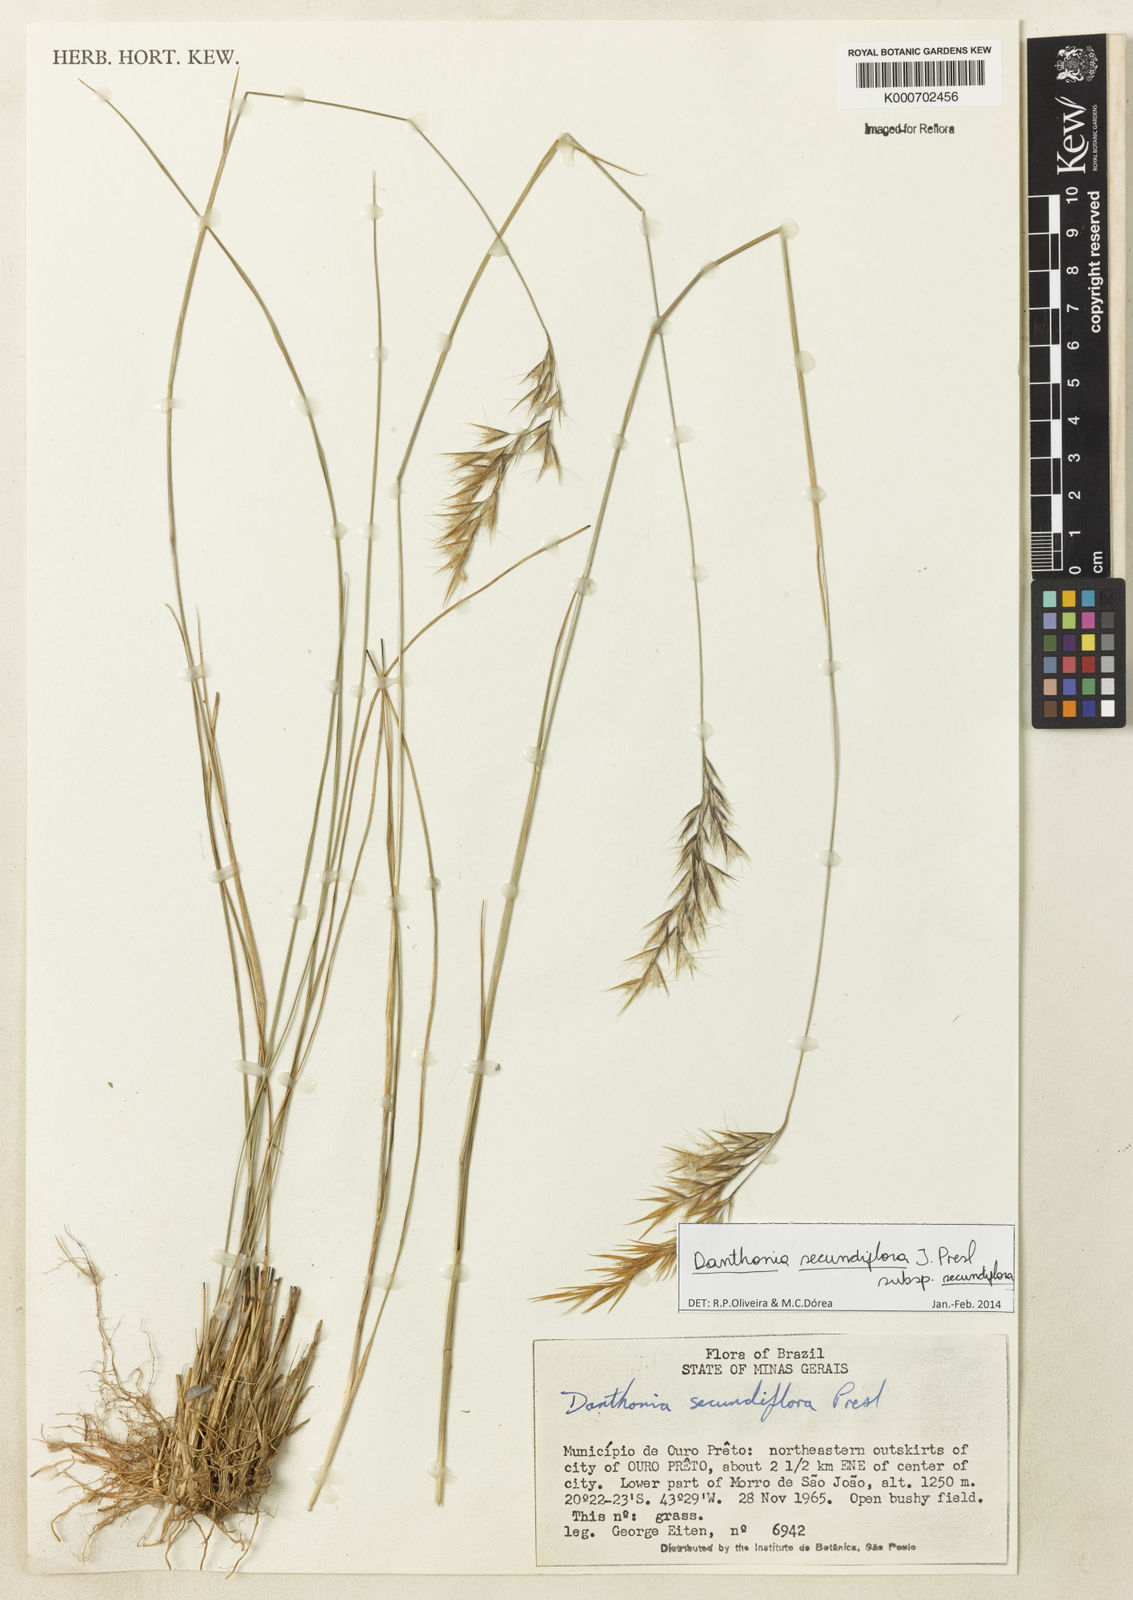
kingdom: Plantae
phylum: Tracheophyta
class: Liliopsida
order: Poales
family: Poaceae
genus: Danthonia
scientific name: Danthonia secundiflora
